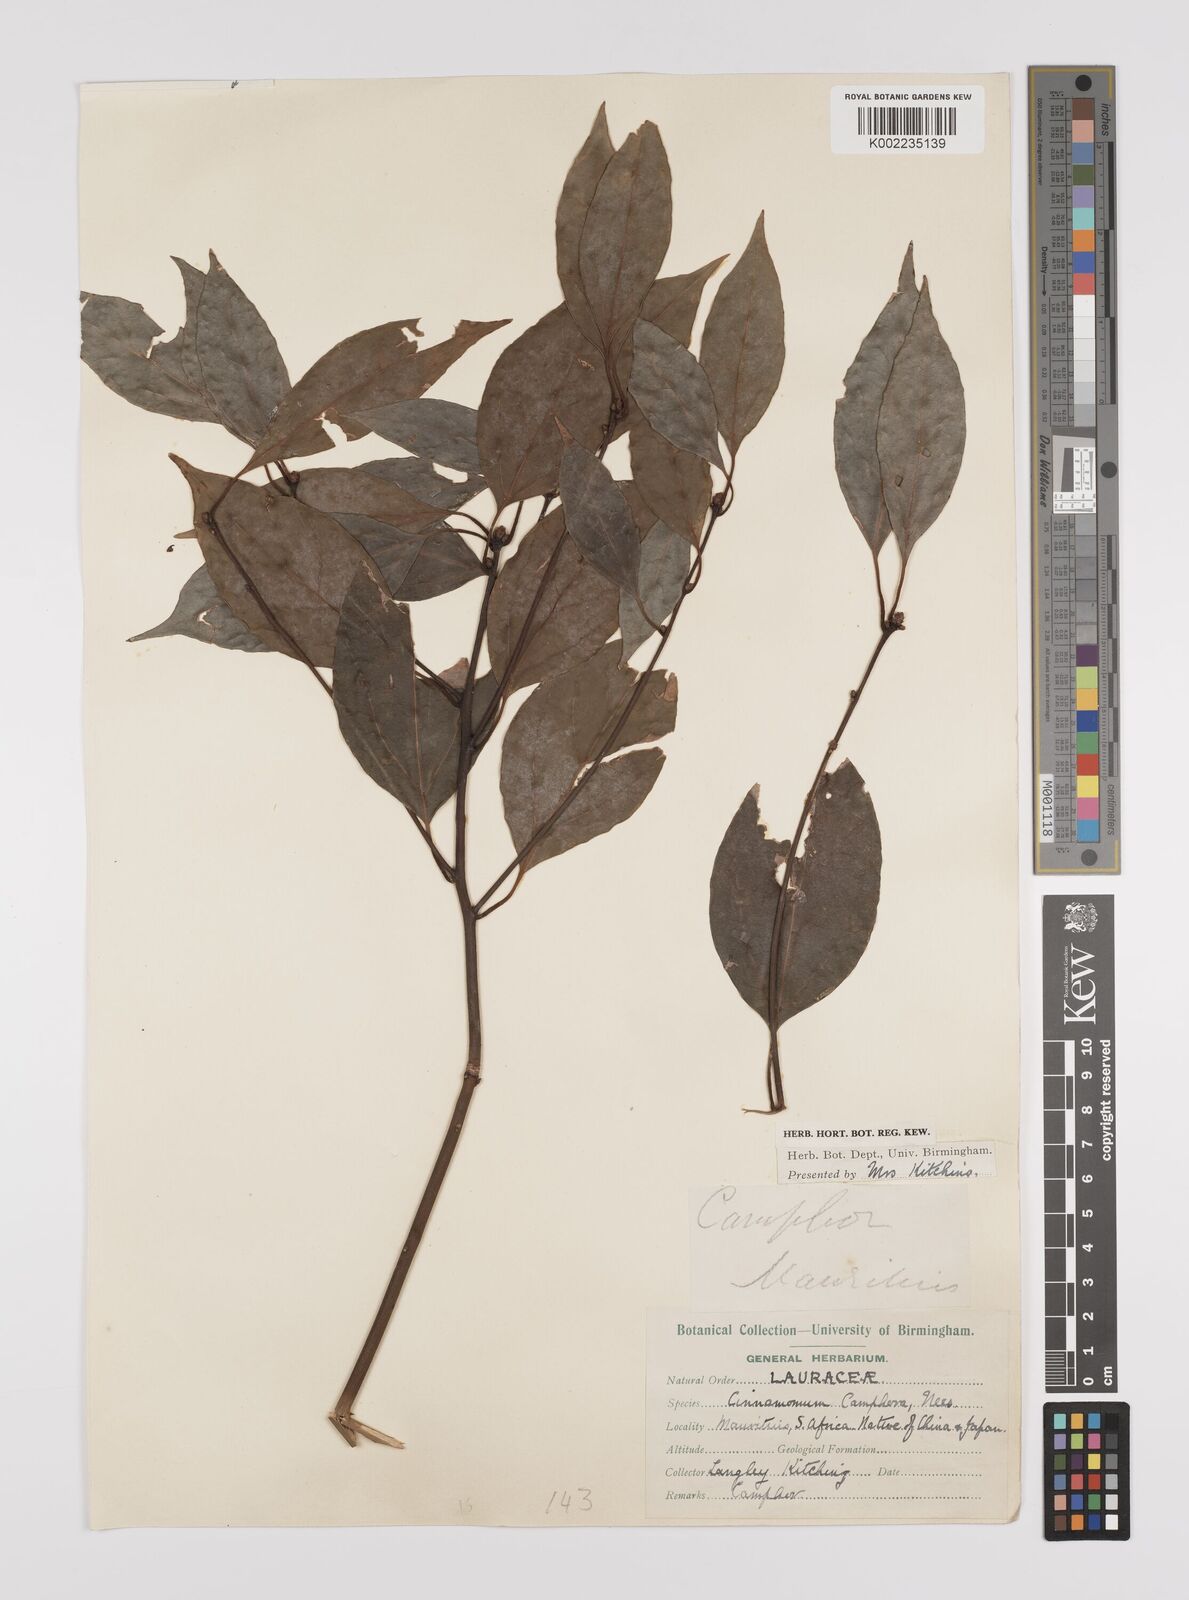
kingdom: Plantae
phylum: Tracheophyta
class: Magnoliopsida
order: Laurales
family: Lauraceae
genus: Cinnamomum
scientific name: Cinnamomum camphora
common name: Camphortree
